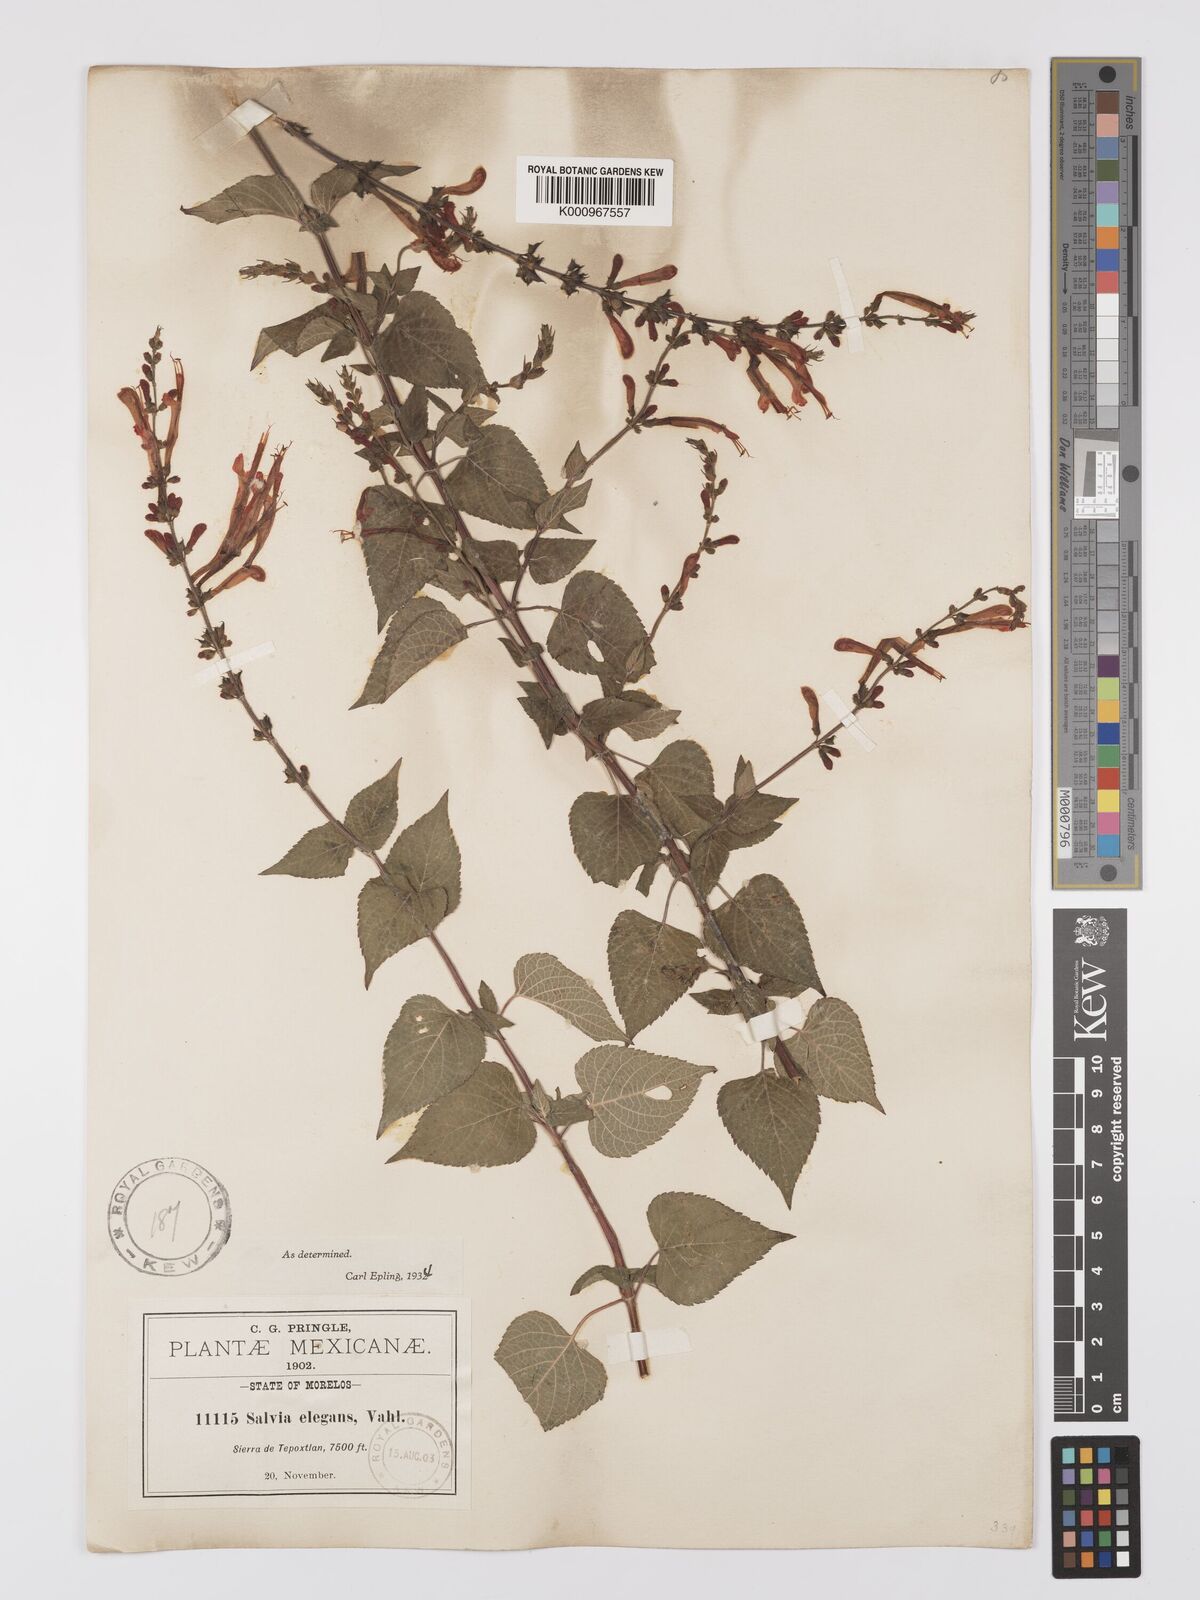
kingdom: Plantae
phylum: Tracheophyta
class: Magnoliopsida
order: Lamiales
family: Lamiaceae
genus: Salvia
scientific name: Salvia elegans
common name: Pineapple sage
